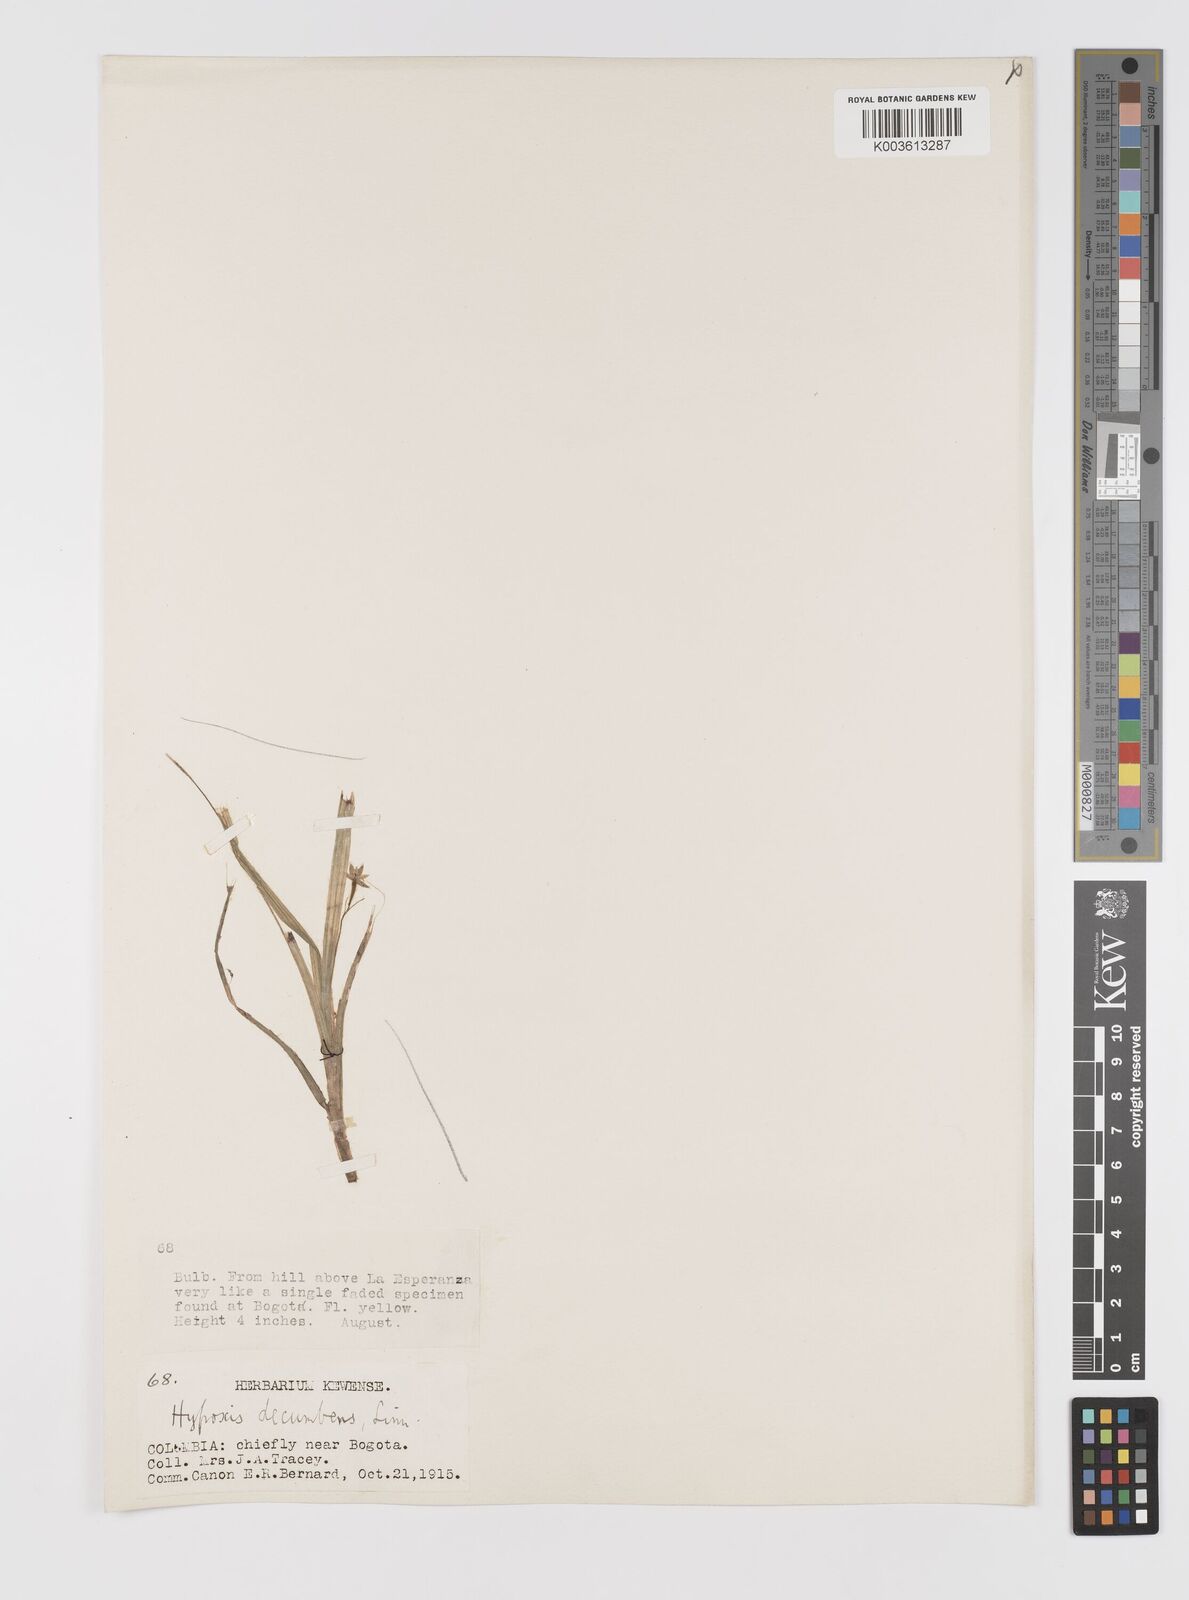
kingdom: Plantae
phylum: Tracheophyta
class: Liliopsida
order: Asparagales
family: Hypoxidaceae
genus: Hypoxis
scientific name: Hypoxis decumbens
